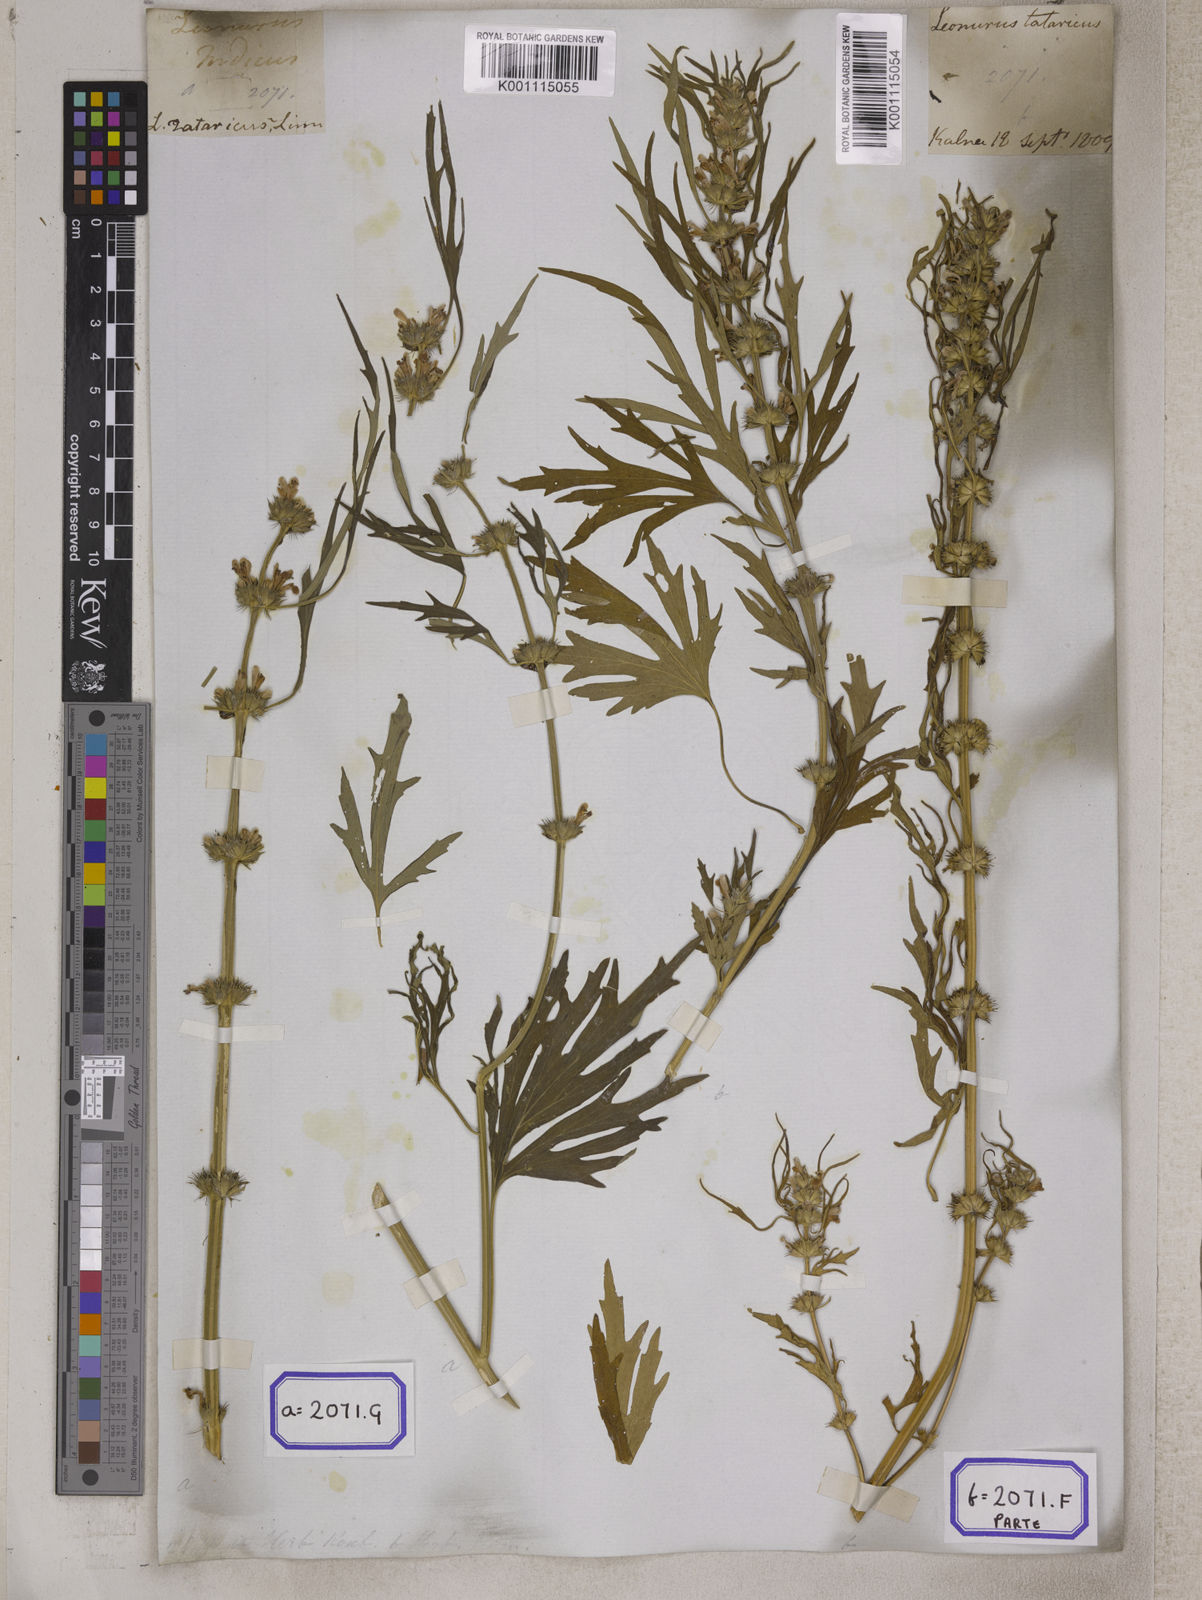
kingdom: Plantae
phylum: Tracheophyta
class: Magnoliopsida
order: Lamiales
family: Lamiaceae
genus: Leonurus
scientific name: Leonurus sibiricus
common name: Honeyweed
